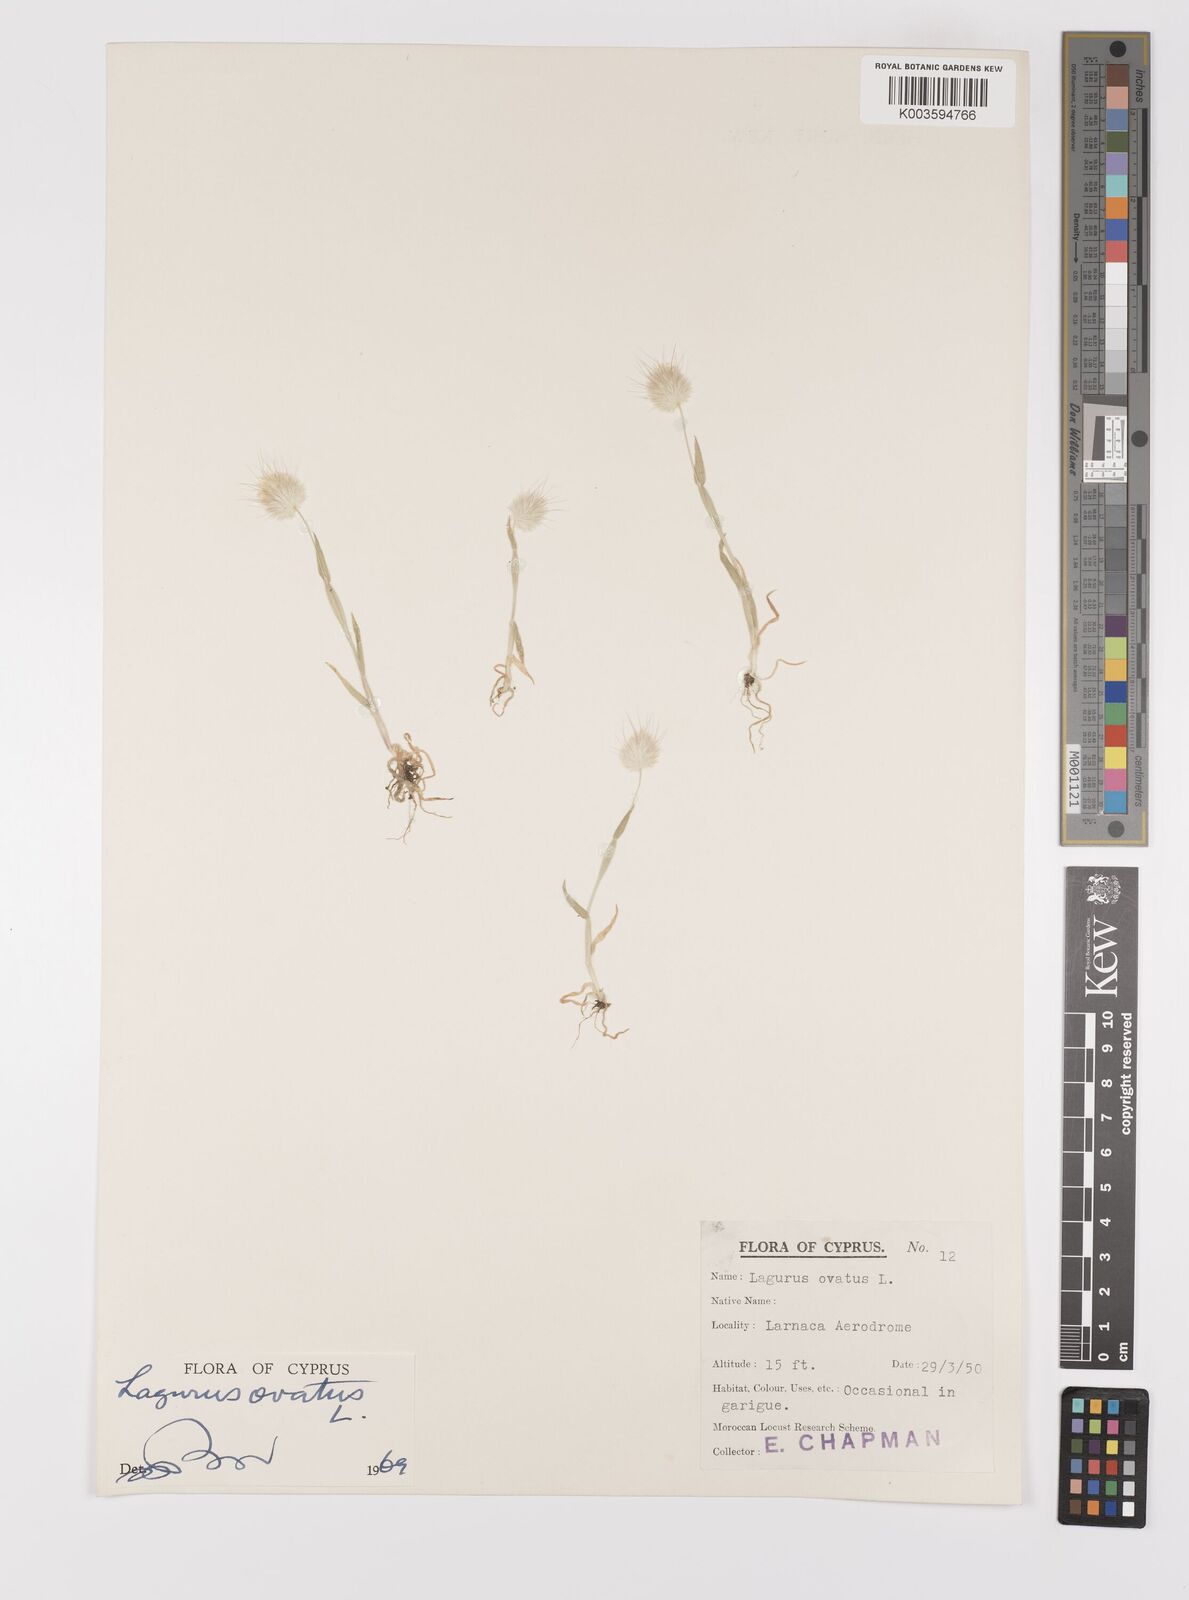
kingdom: Plantae
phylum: Tracheophyta
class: Liliopsida
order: Poales
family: Poaceae
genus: Lagurus
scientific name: Lagurus ovatus
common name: Hare's-tail
